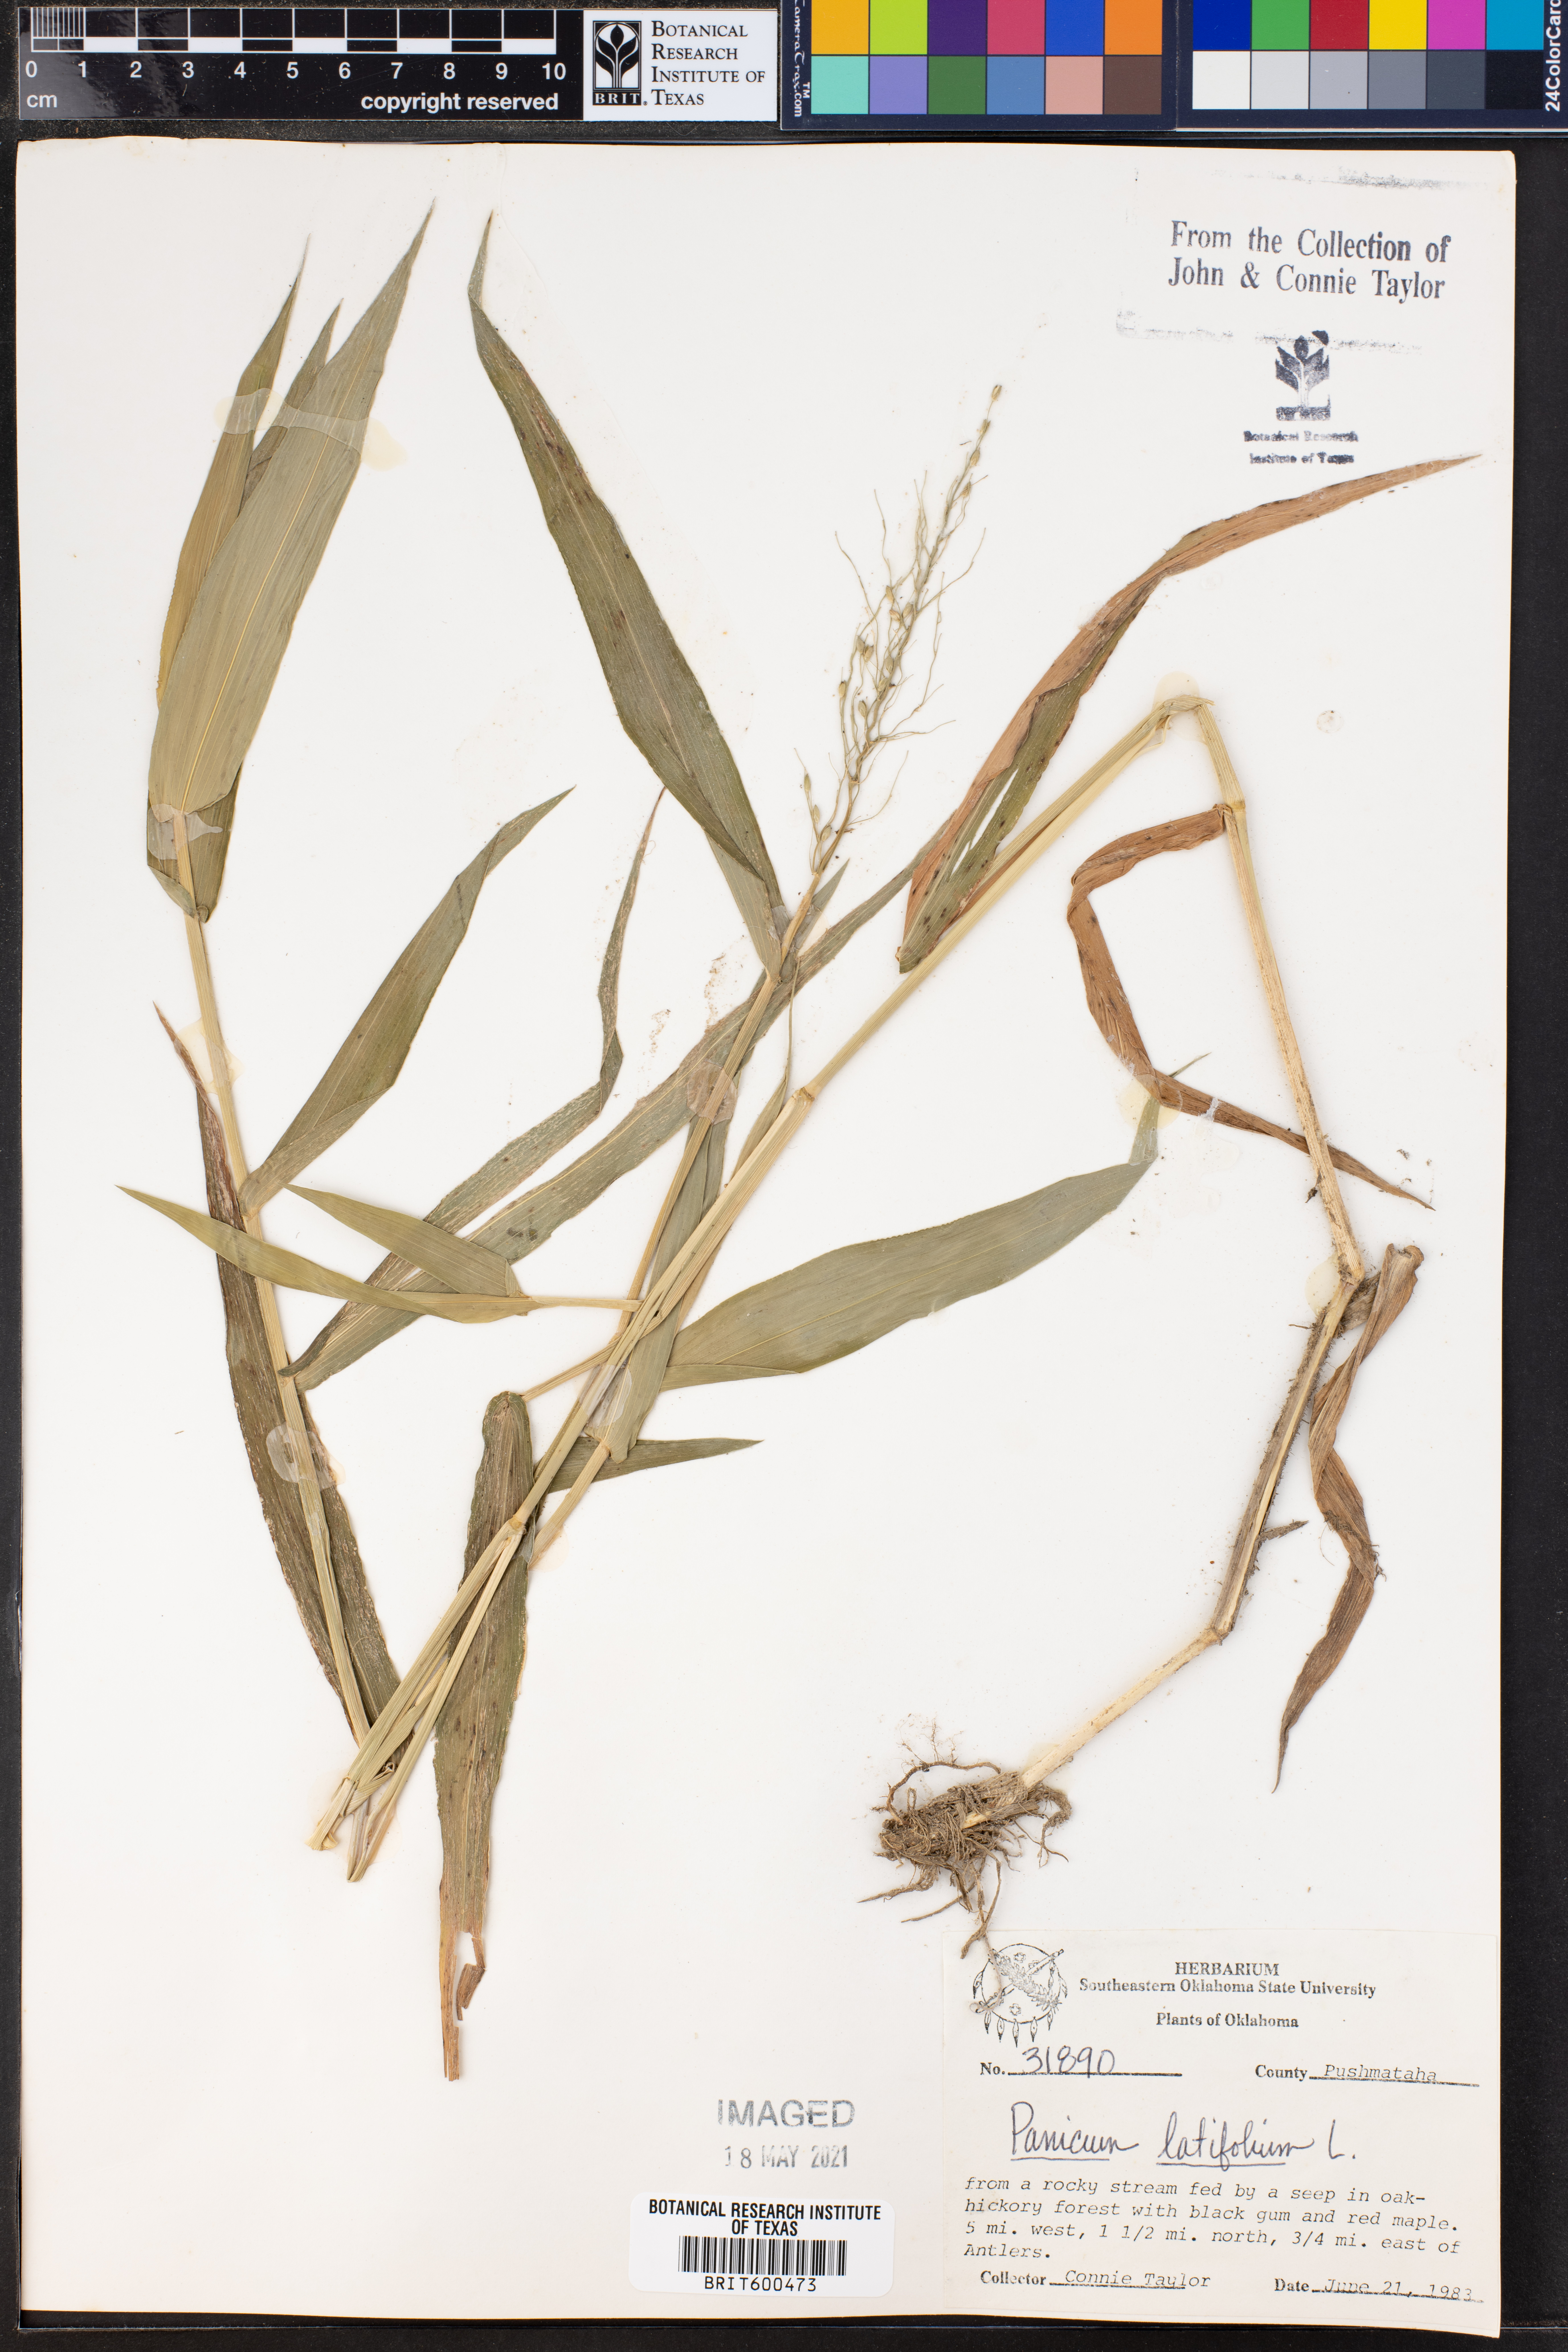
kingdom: Plantae
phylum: Tracheophyta
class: Liliopsida
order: Poales
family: Poaceae
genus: Dichanthelium
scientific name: Dichanthelium latifolium
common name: Broad-leaved panicgrass
